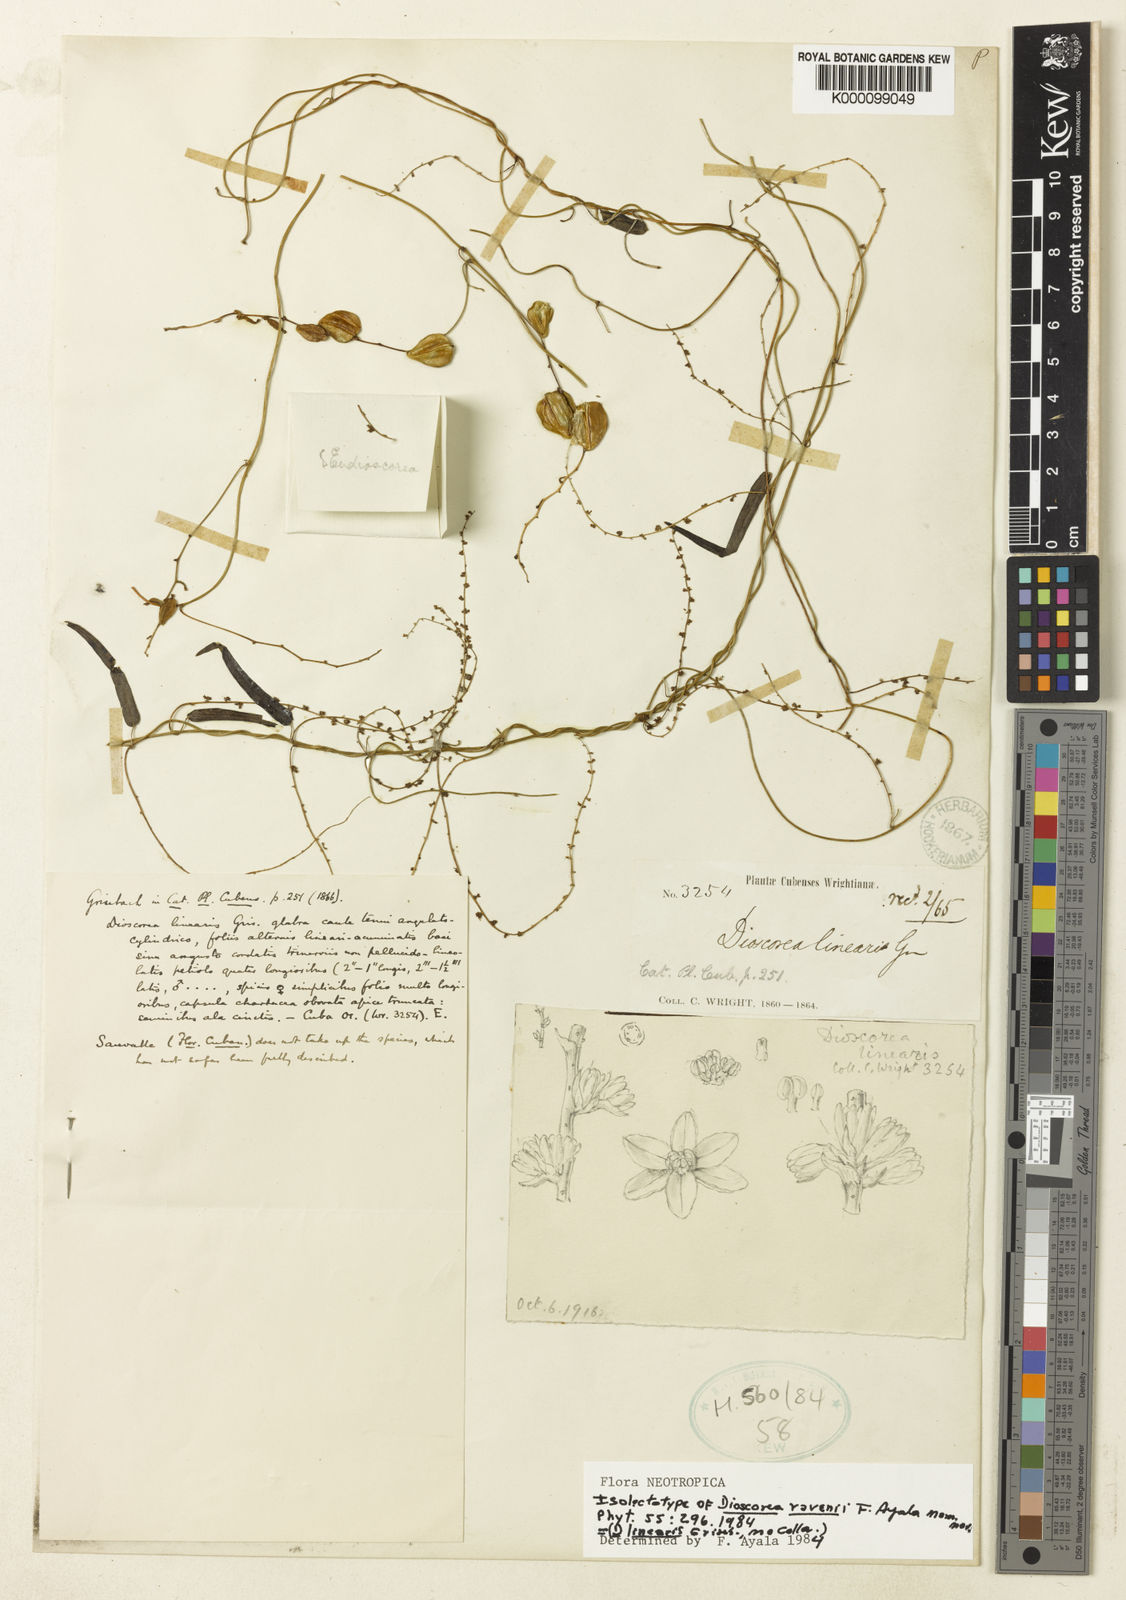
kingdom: Plantae
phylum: Tracheophyta
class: Liliopsida
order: Dioscoreales
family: Dioscoreaceae
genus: Dioscorea
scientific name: Dioscorea nipensis
